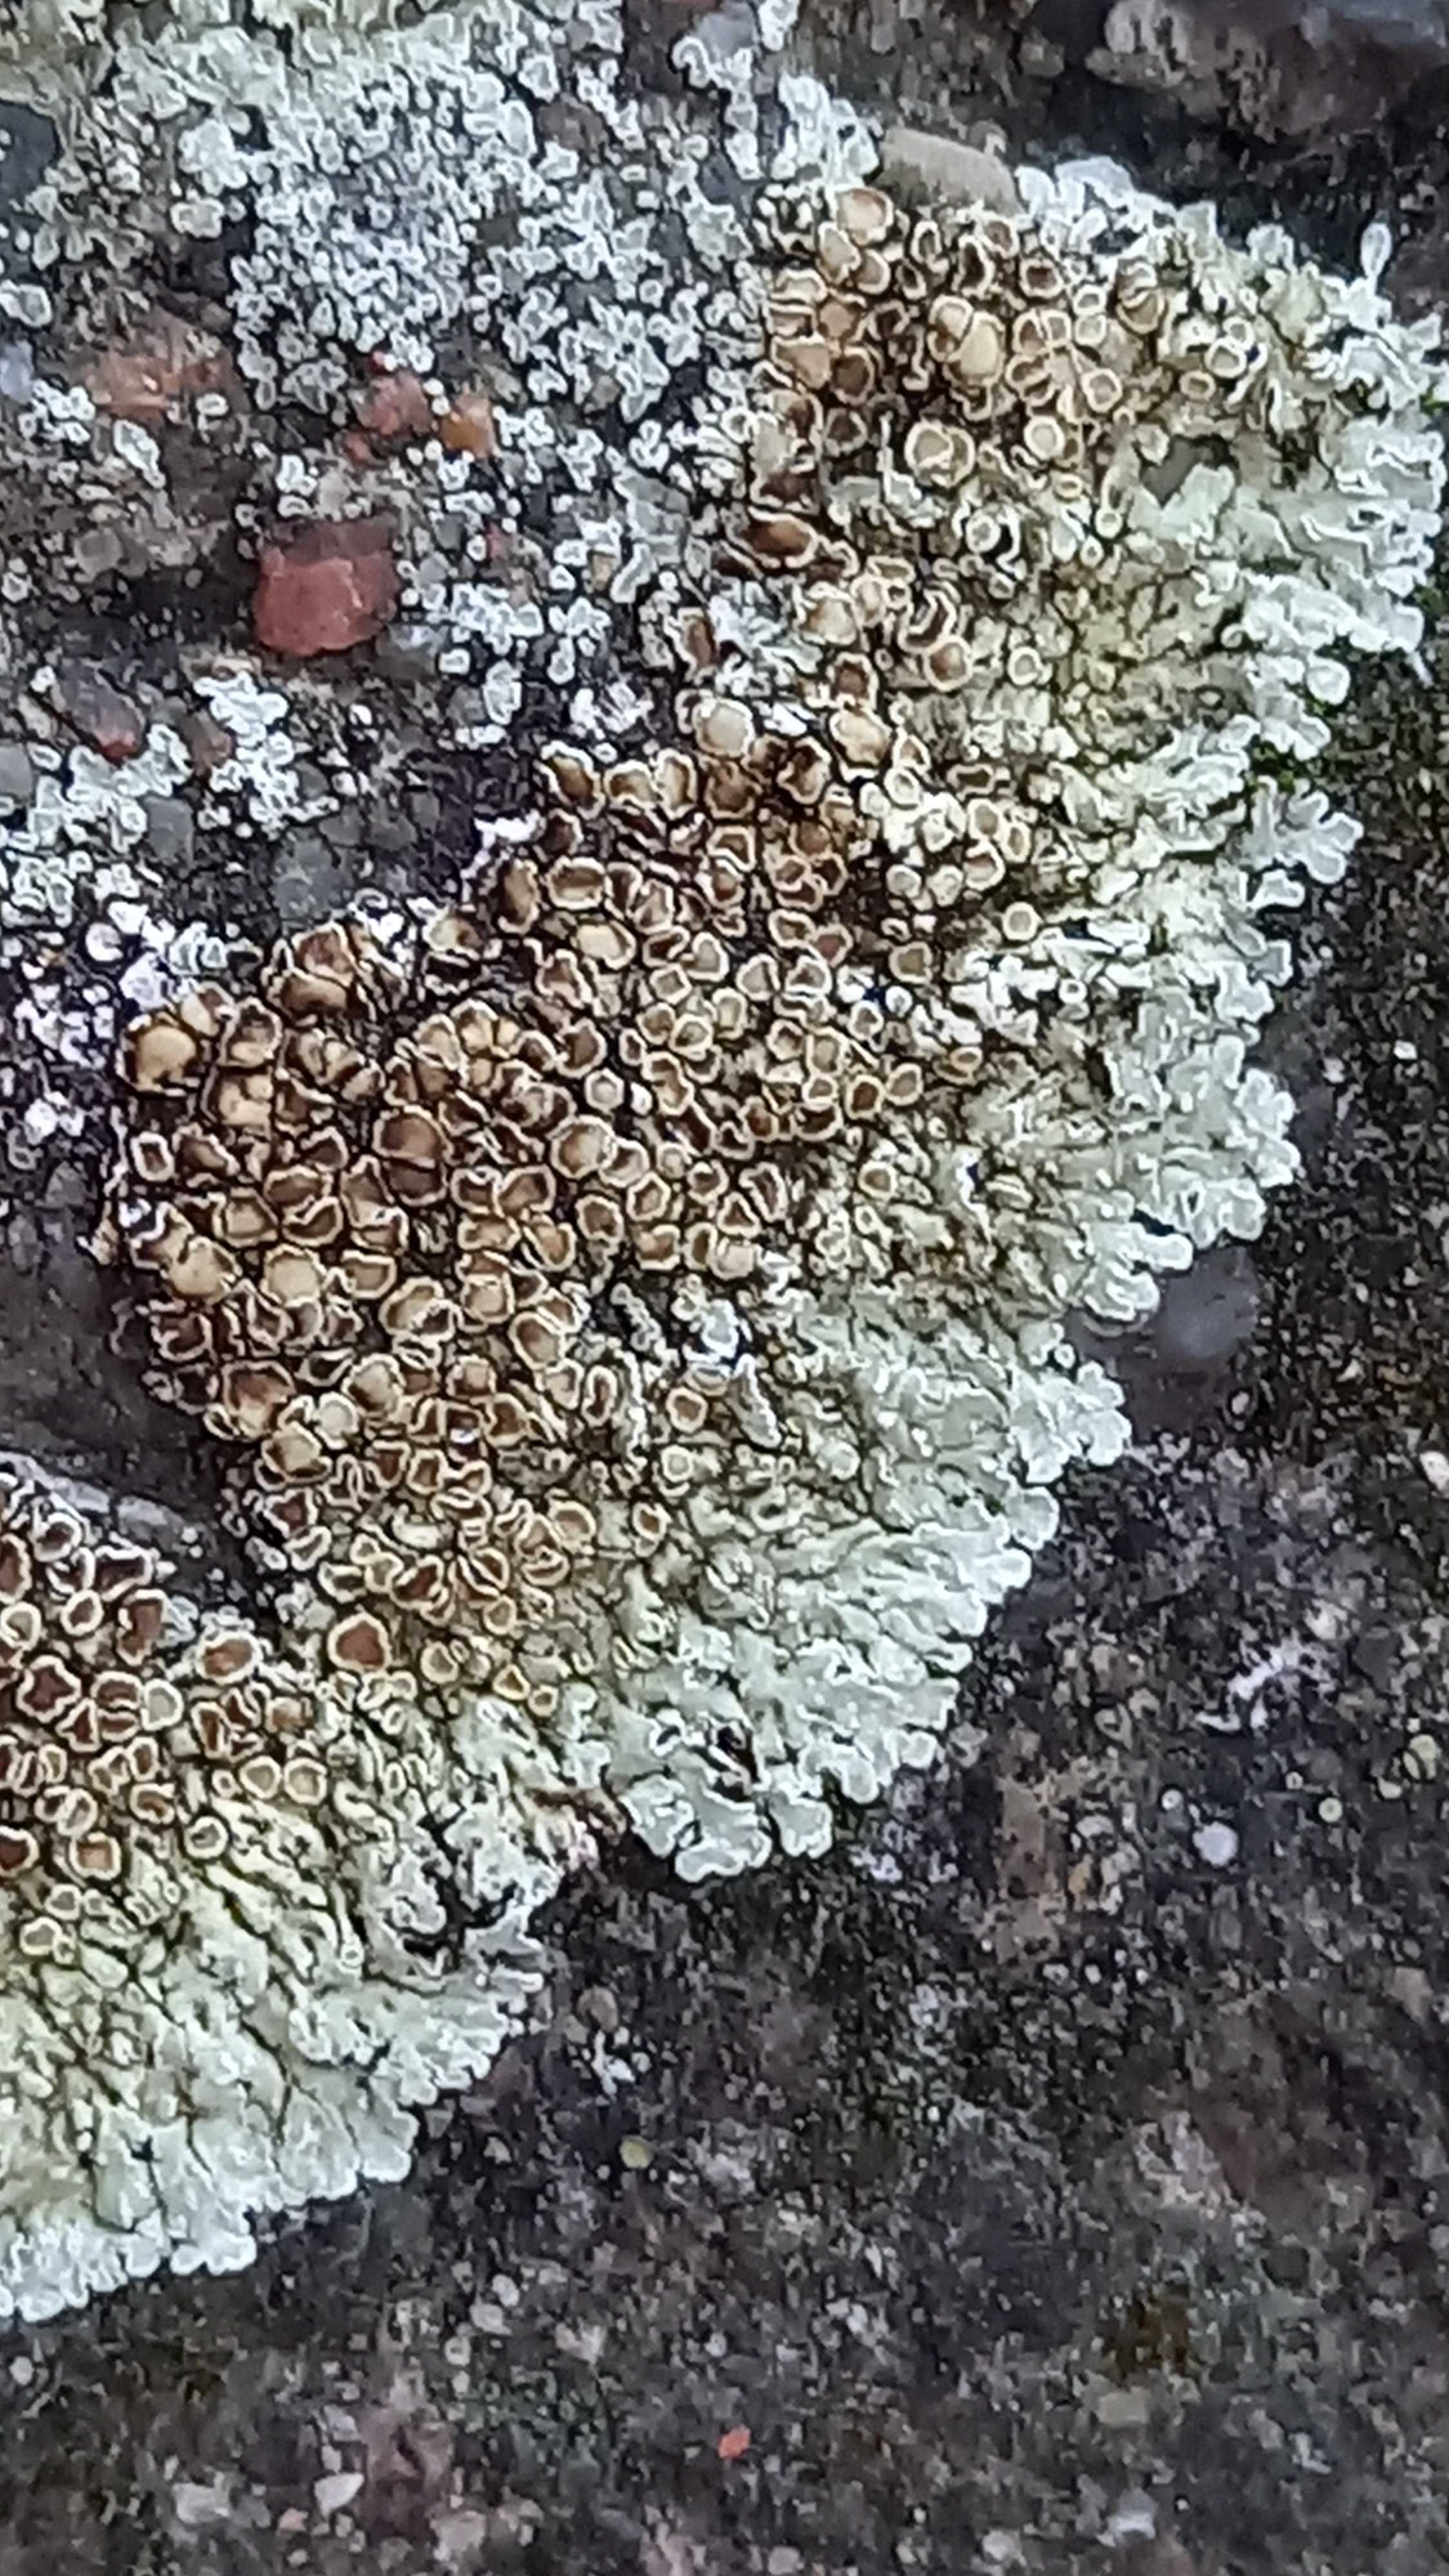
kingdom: Fungi
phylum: Ascomycota
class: Lecanoromycetes
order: Lecanorales
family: Lecanoraceae
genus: Protoparmeliopsis
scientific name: Protoparmeliopsis muralis
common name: randfliget kantskivelav
